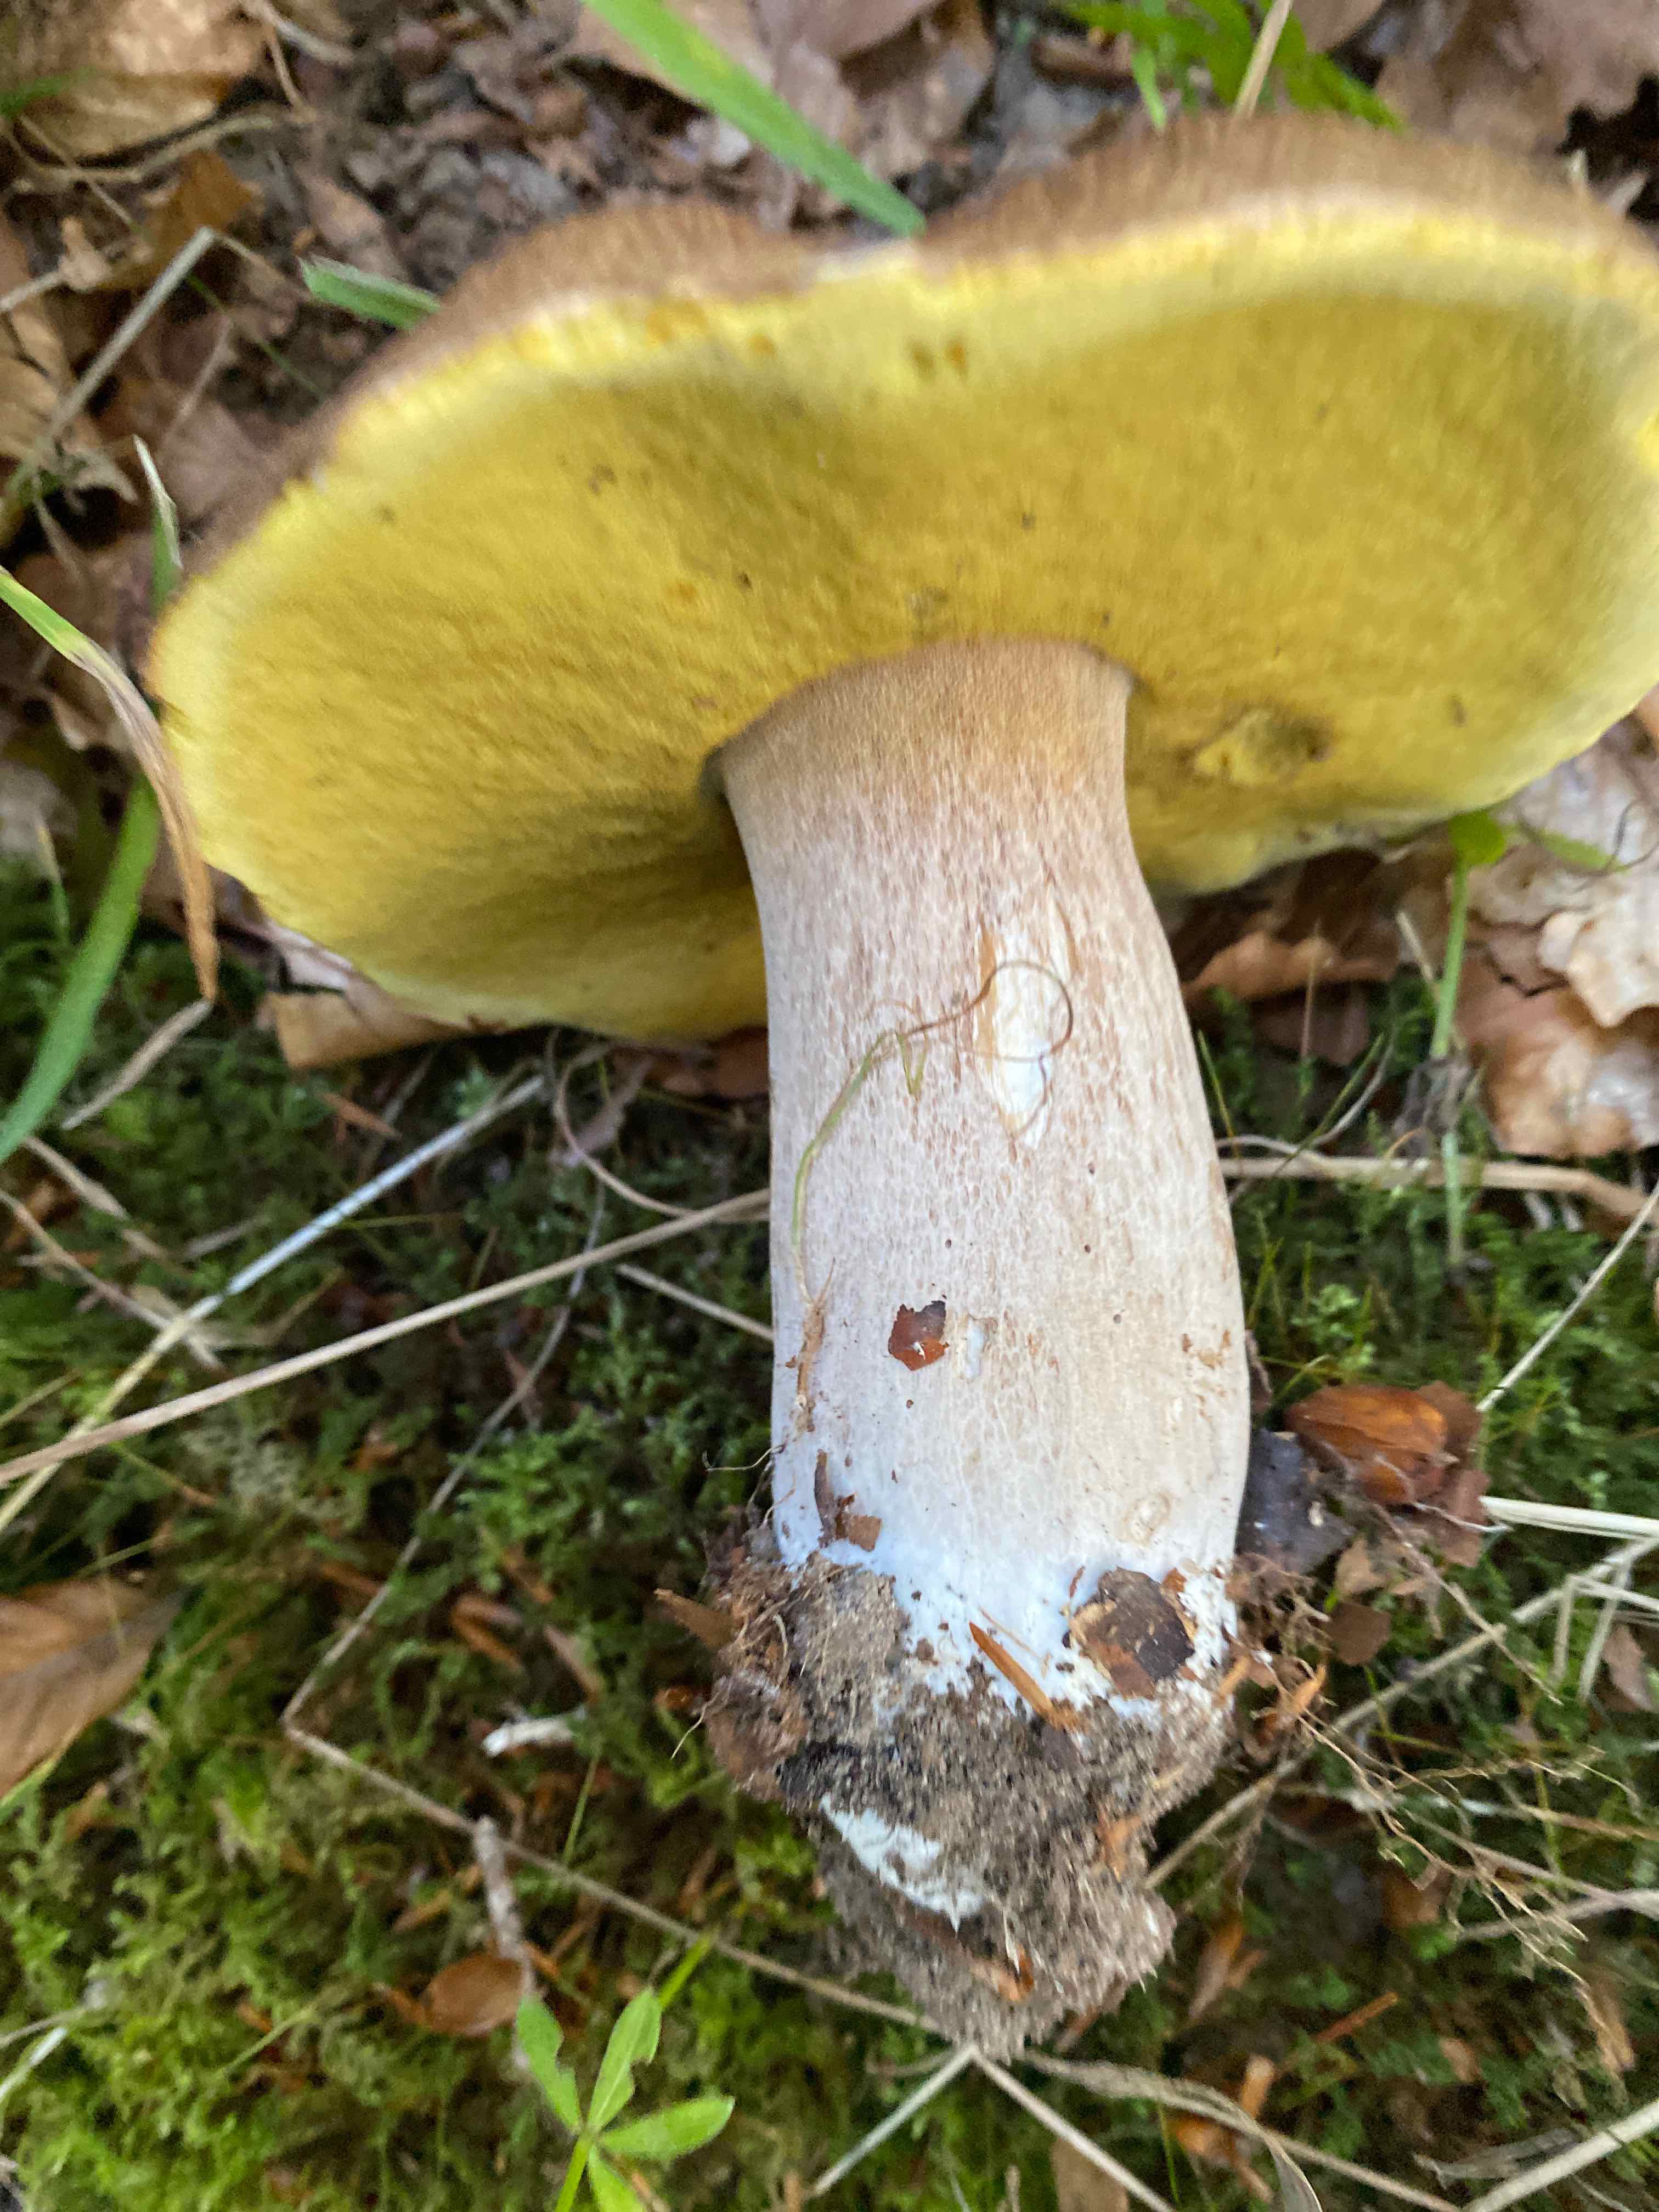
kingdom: Fungi
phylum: Basidiomycota
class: Agaricomycetes
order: Boletales
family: Boletaceae
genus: Boletus
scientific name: Boletus edulis
